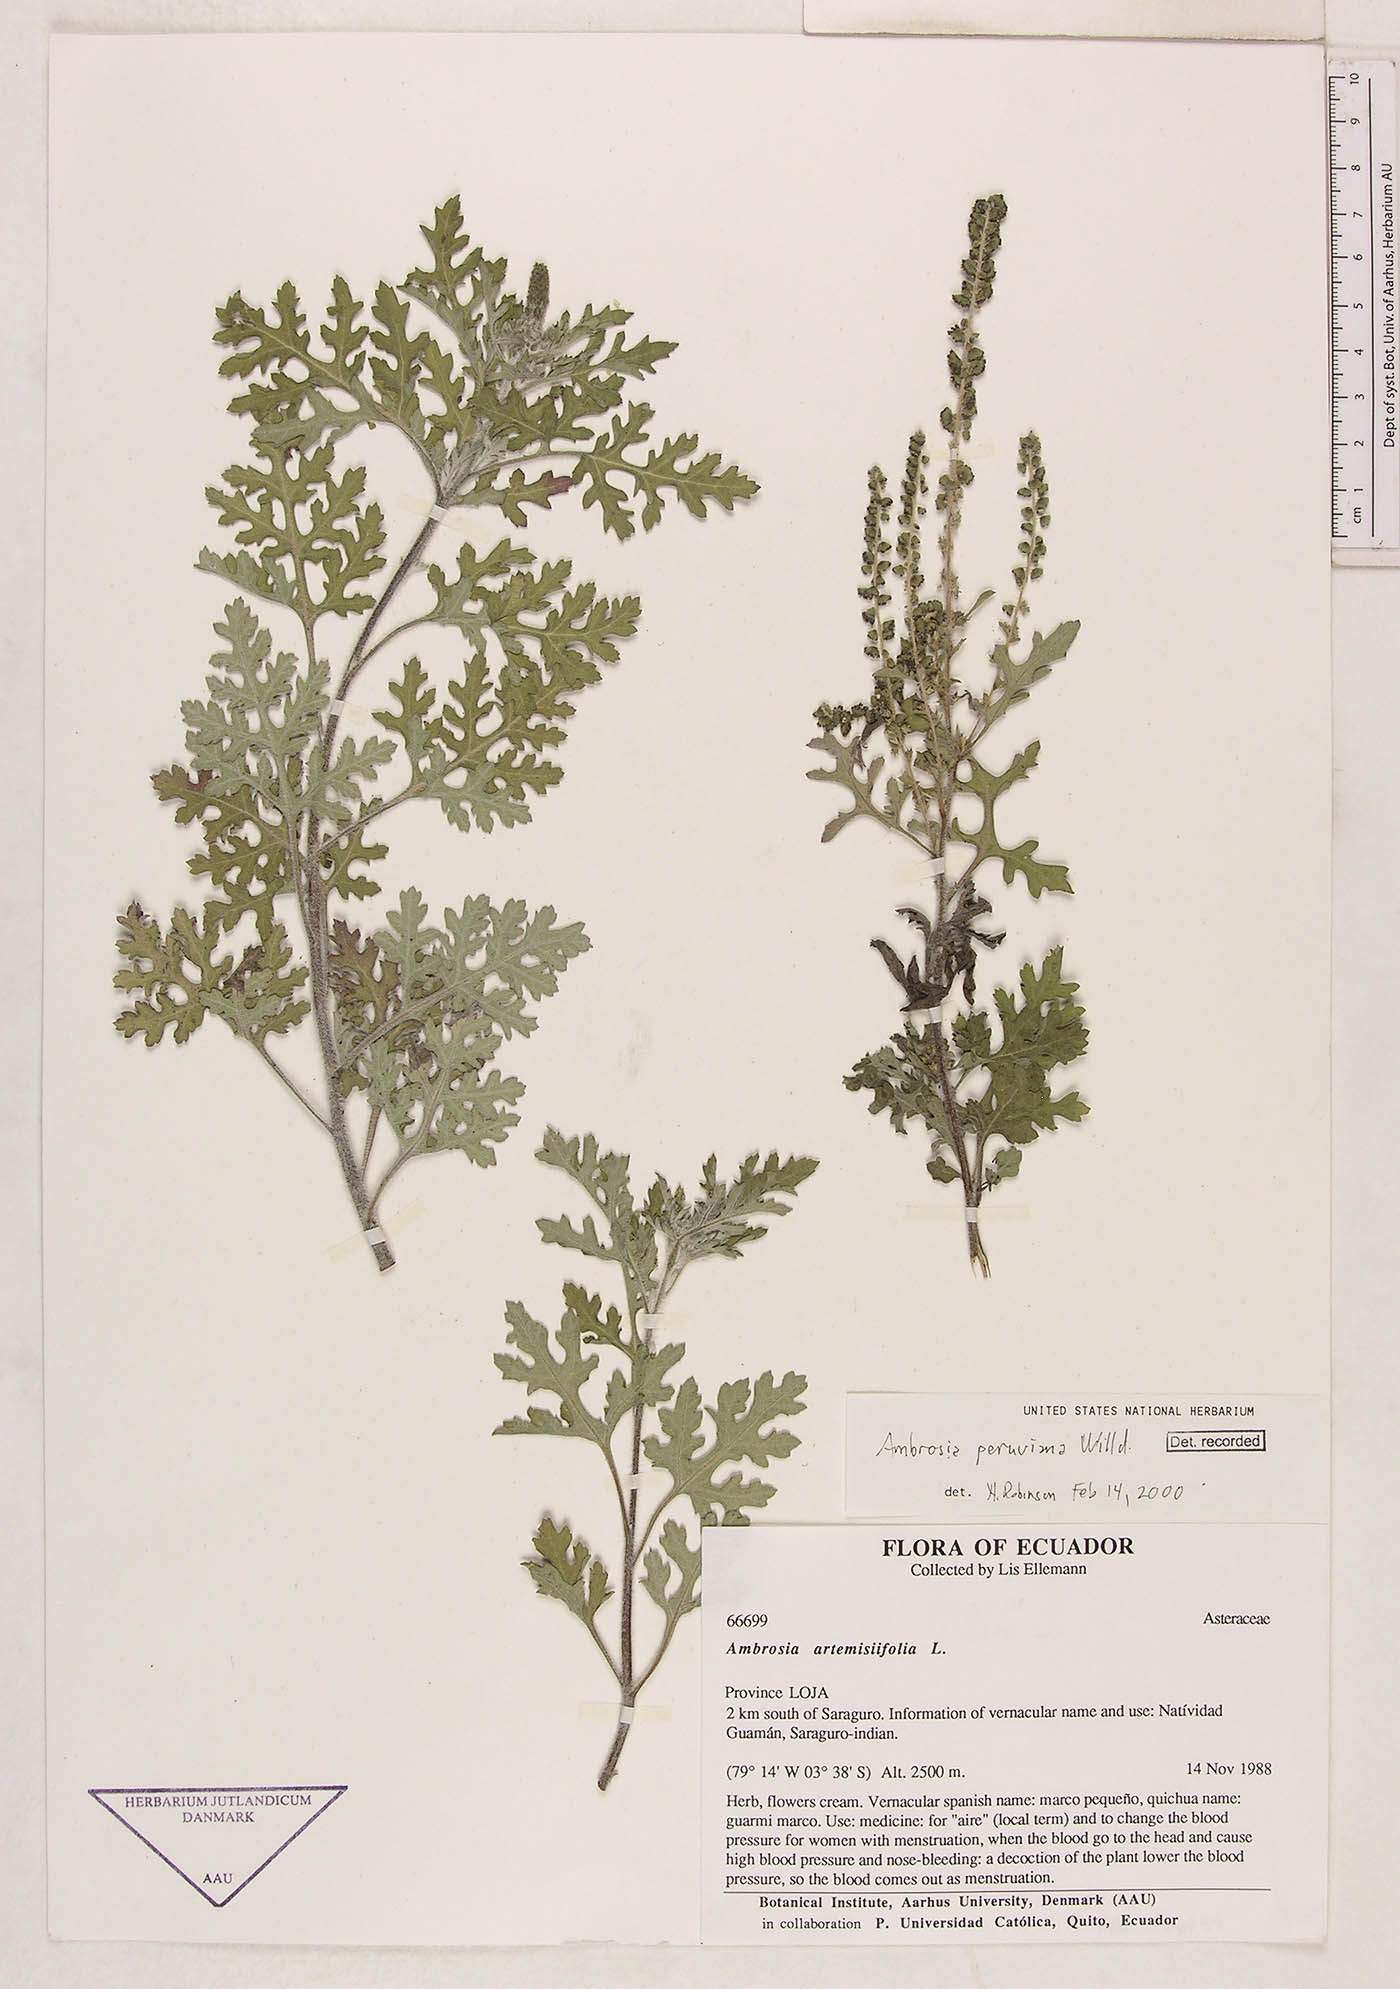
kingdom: Plantae
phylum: Tracheophyta
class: Magnoliopsida
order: Asterales
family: Asteraceae
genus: Ambrosia
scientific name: Ambrosia cumanensis
